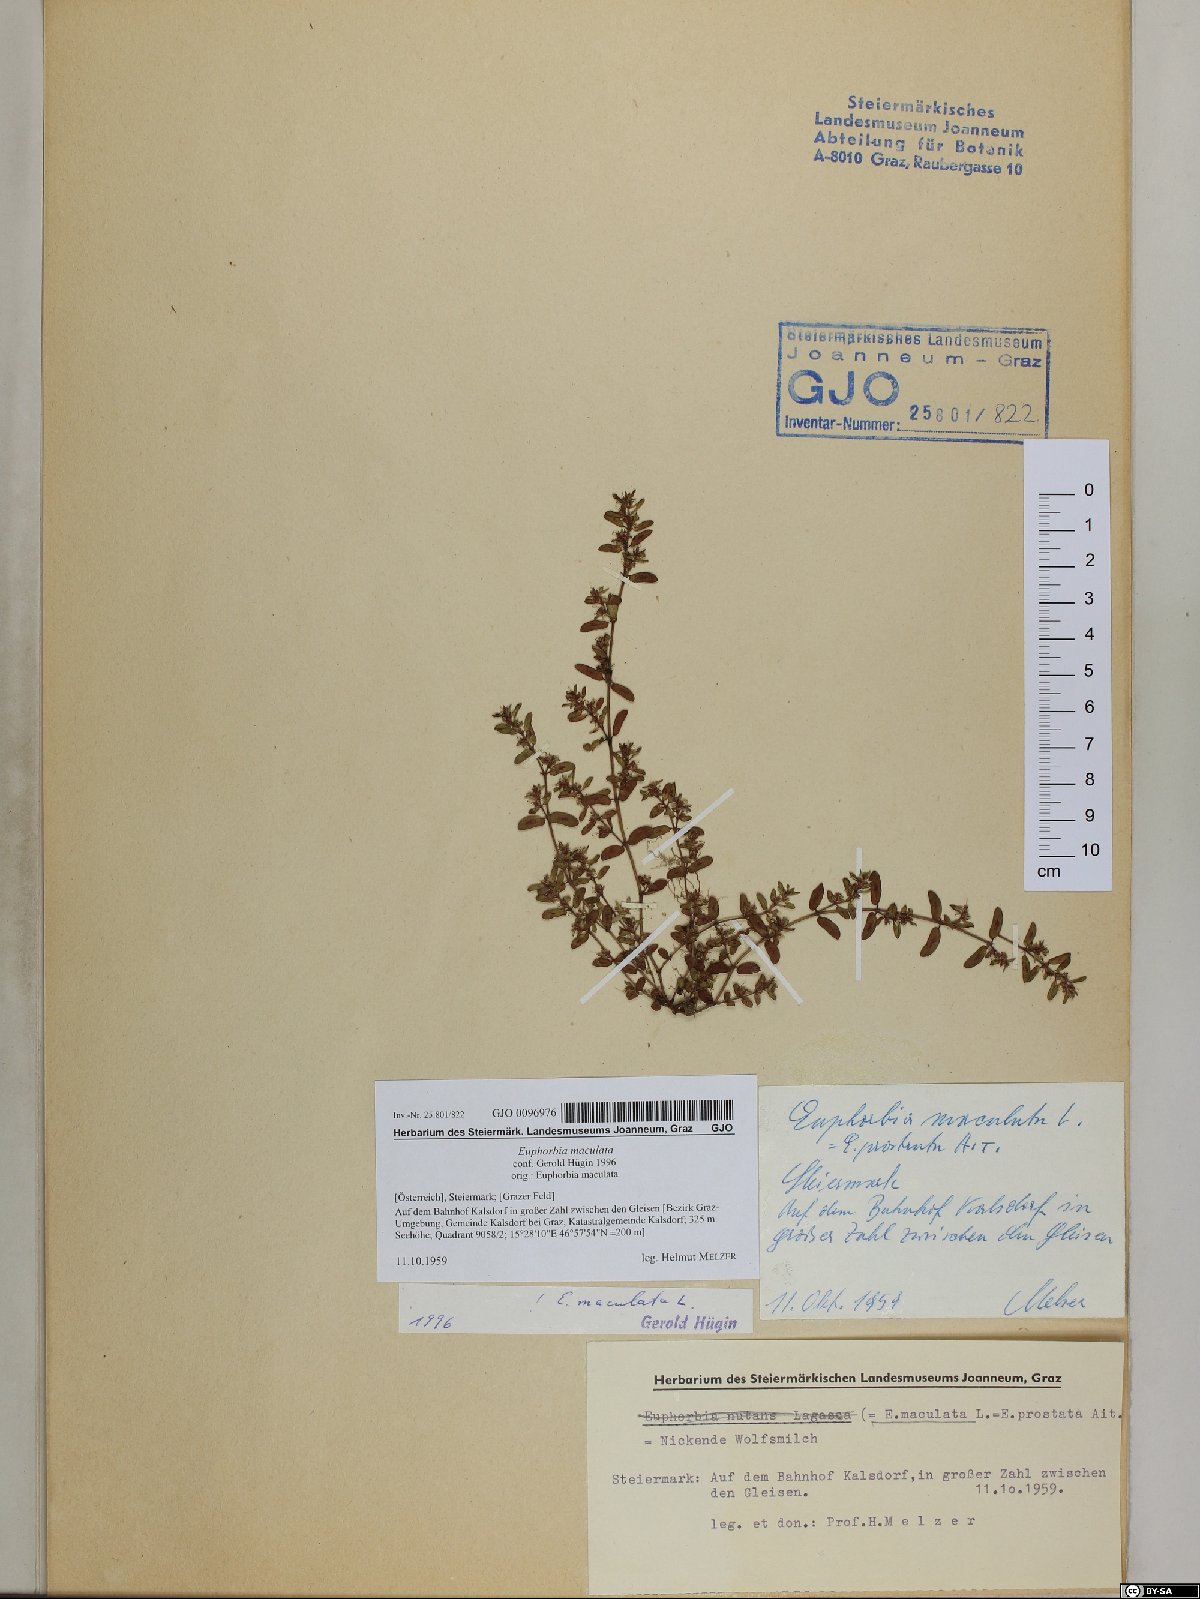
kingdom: Plantae
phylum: Tracheophyta
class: Magnoliopsida
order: Malpighiales
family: Euphorbiaceae
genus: Euphorbia
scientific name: Euphorbia maculata
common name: Spotted spurge
